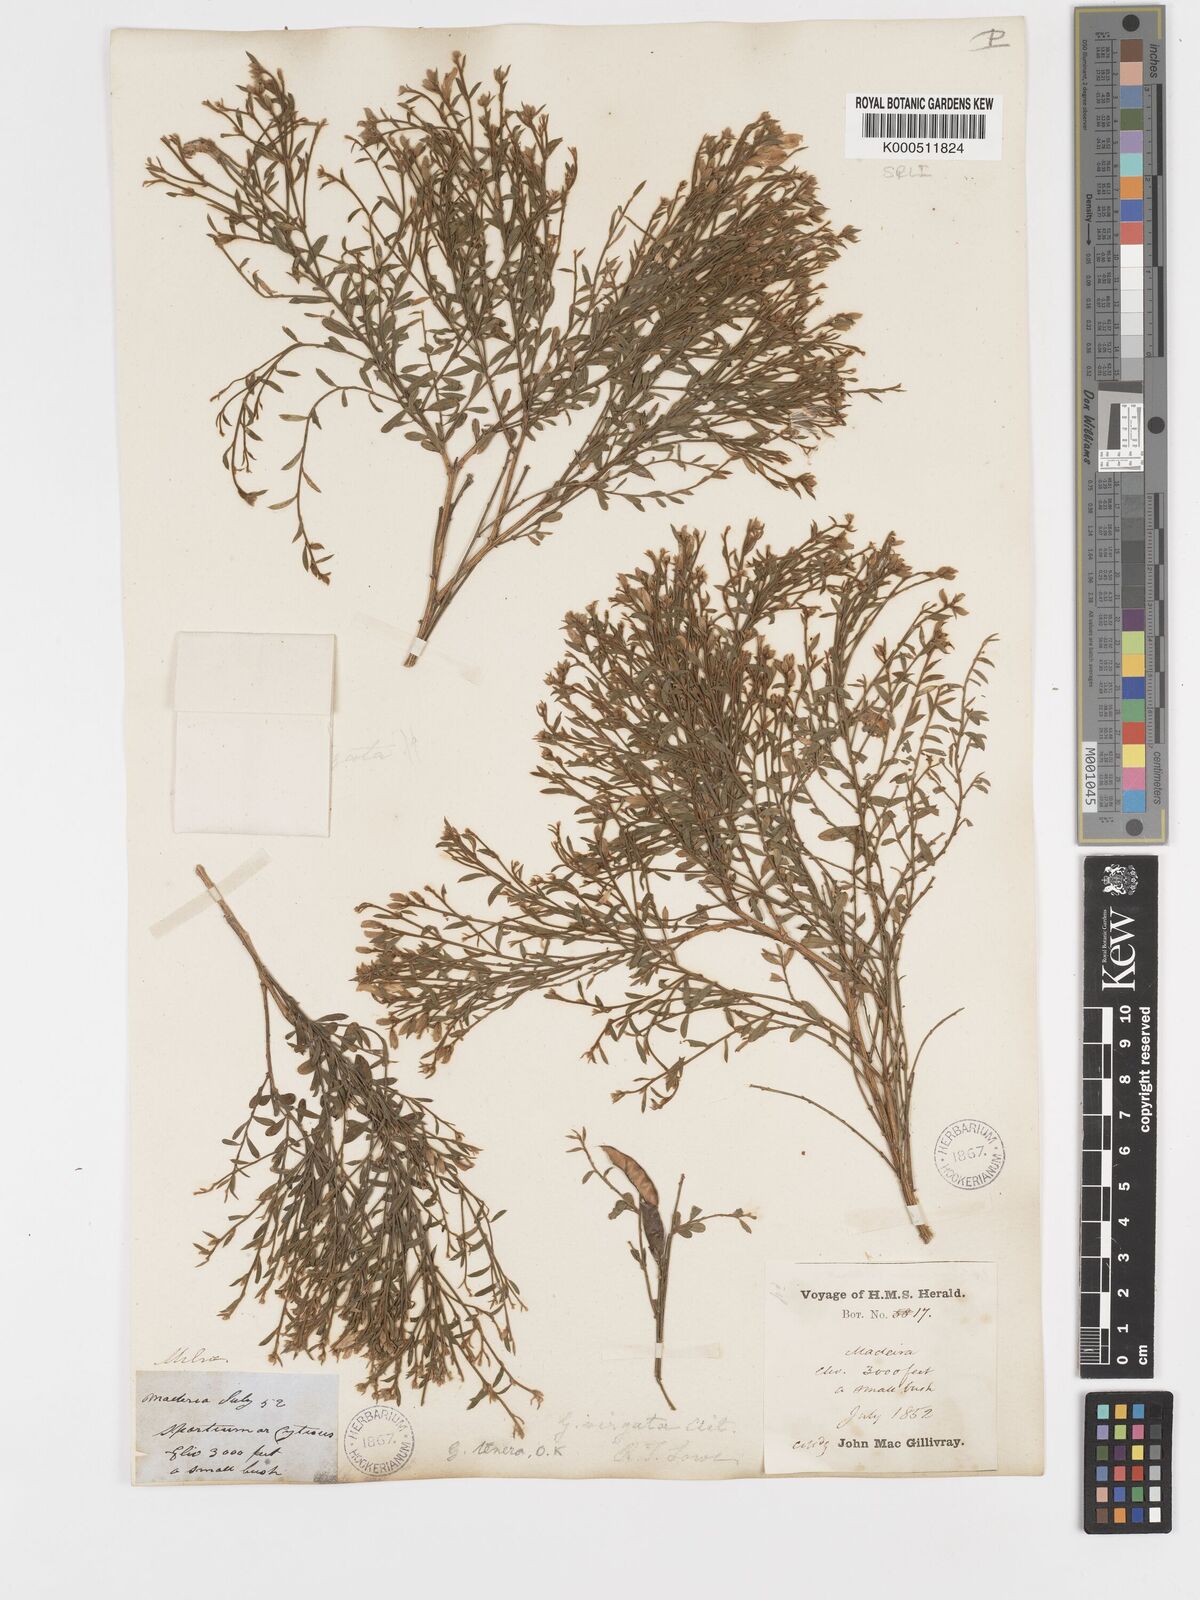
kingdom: Plantae
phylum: Tracheophyta
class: Magnoliopsida
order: Fabales
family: Fabaceae
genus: Genista
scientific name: Genista tenera
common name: Madeira broom
